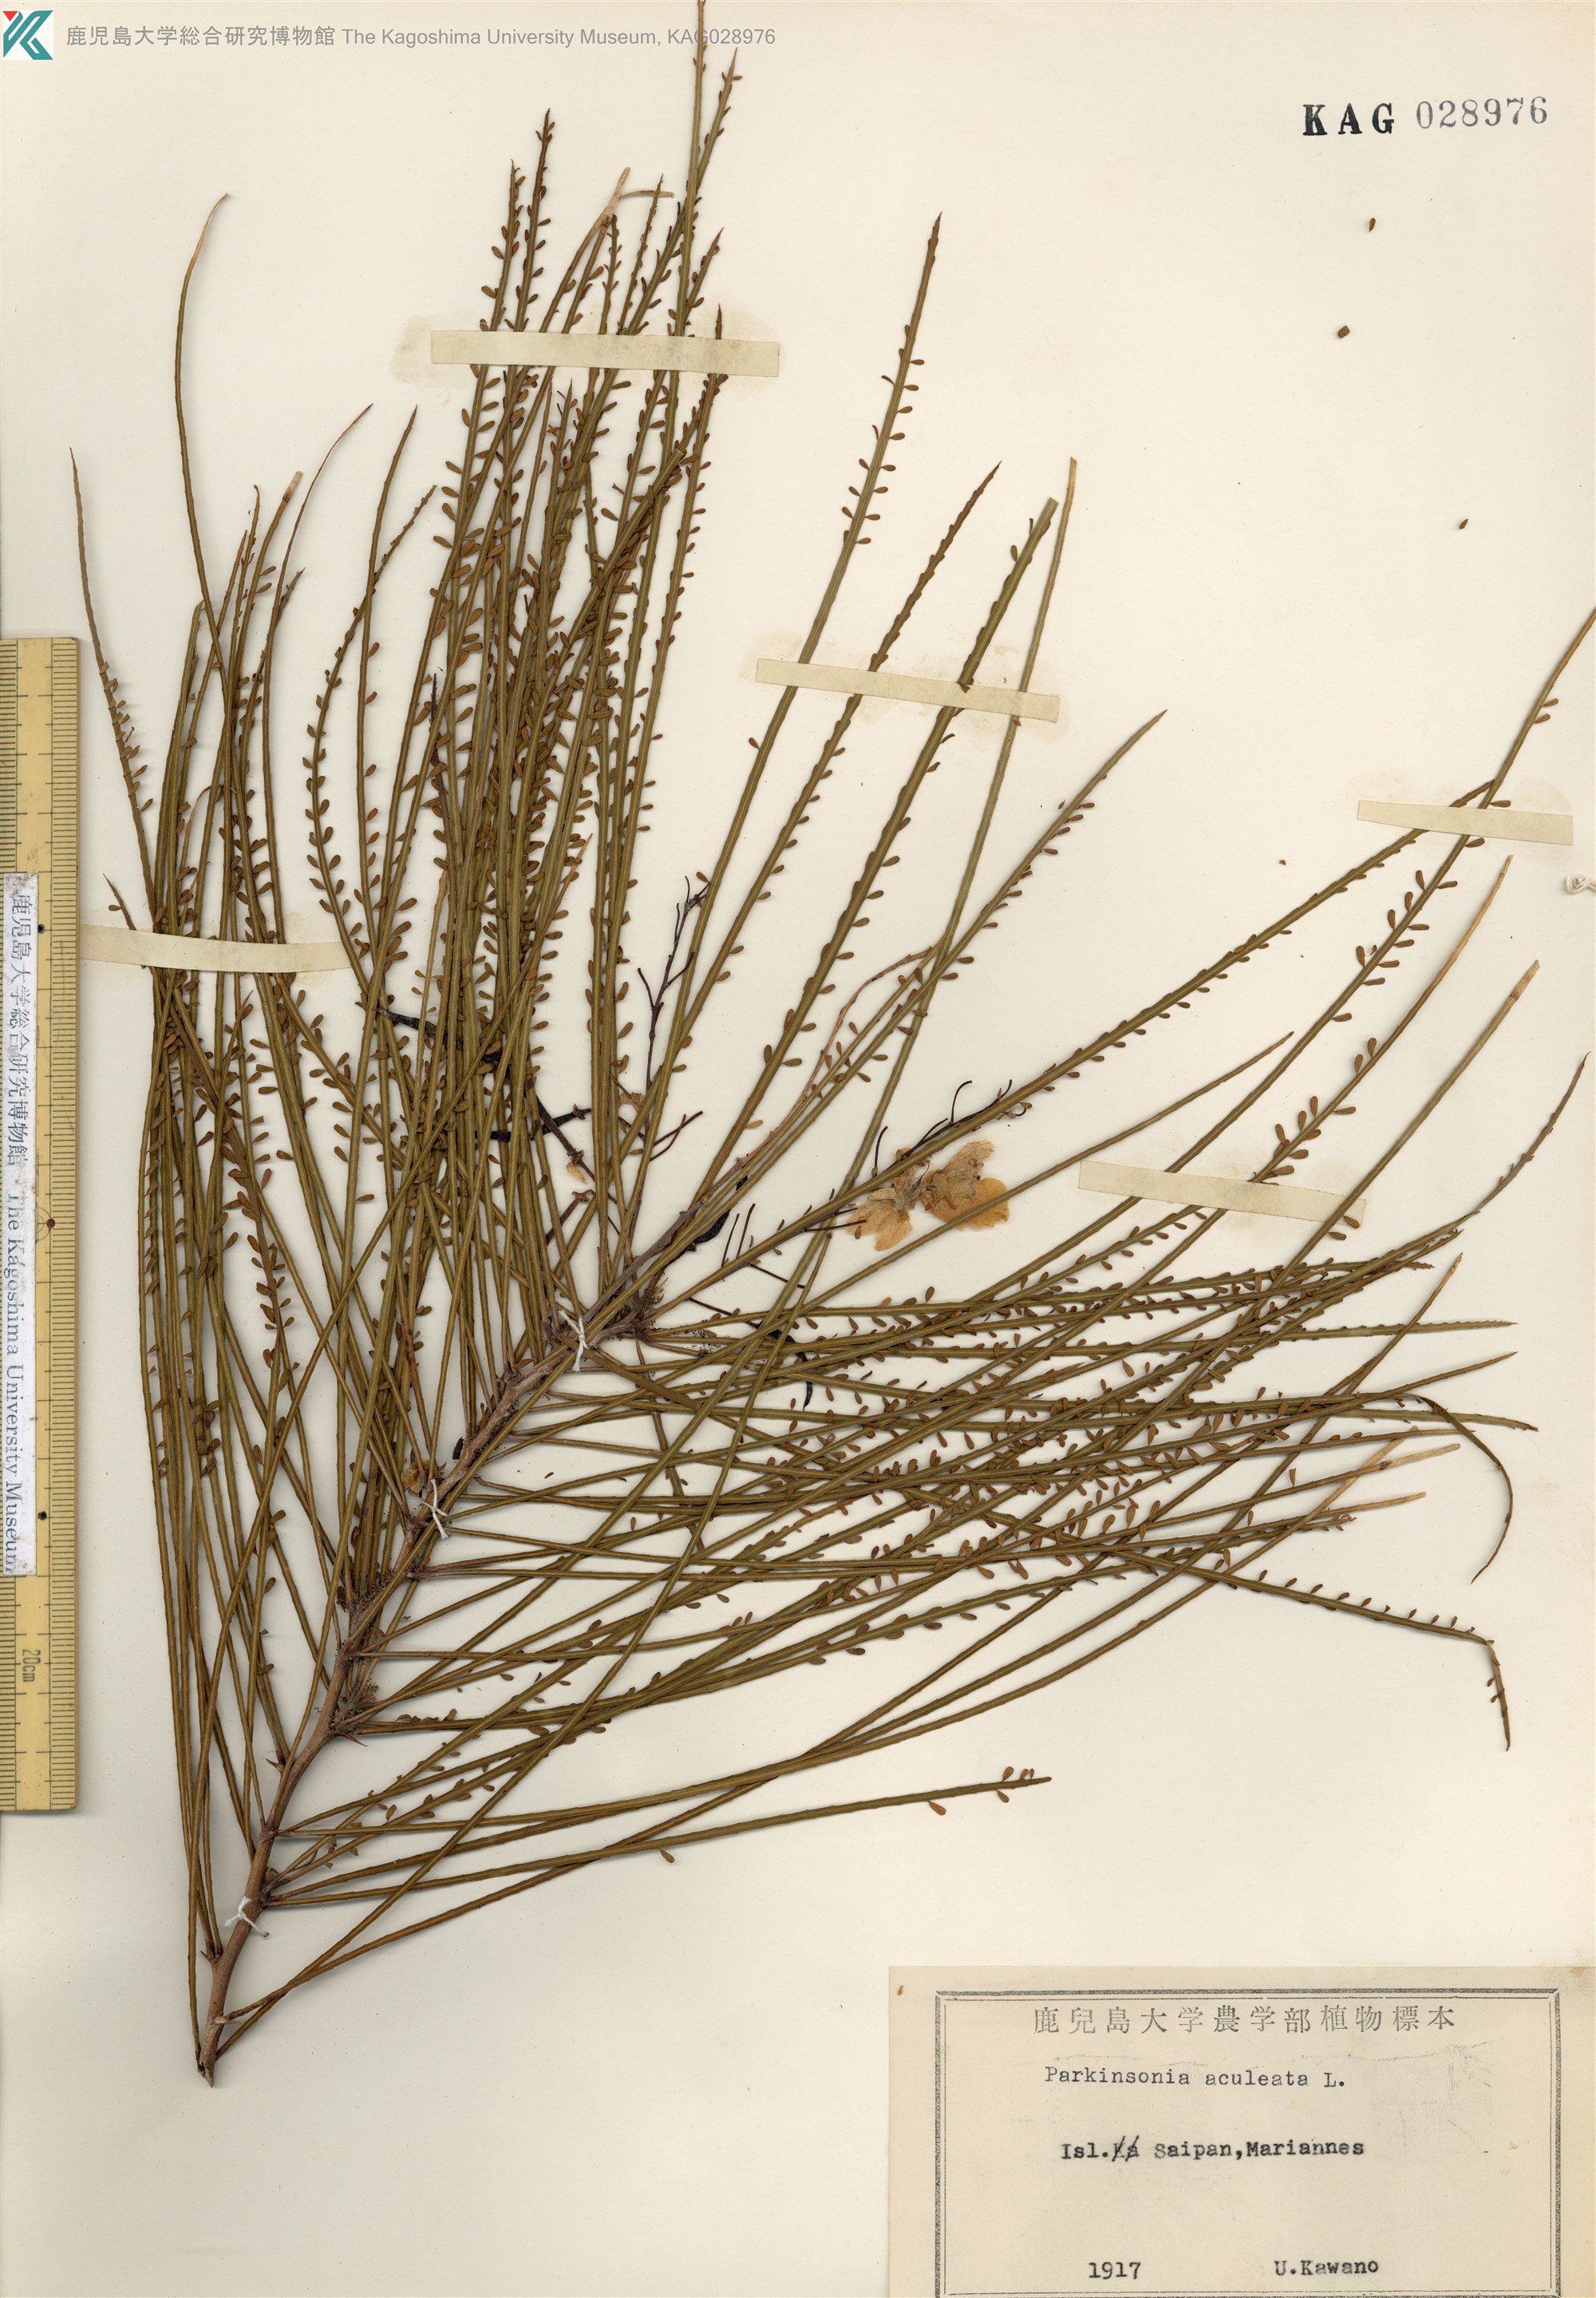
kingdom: Plantae
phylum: Tracheophyta
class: Magnoliopsida
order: Fabales
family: Fabaceae
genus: Parkinsonia
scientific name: Parkinsonia aculeata
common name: Jerusalem thorn
